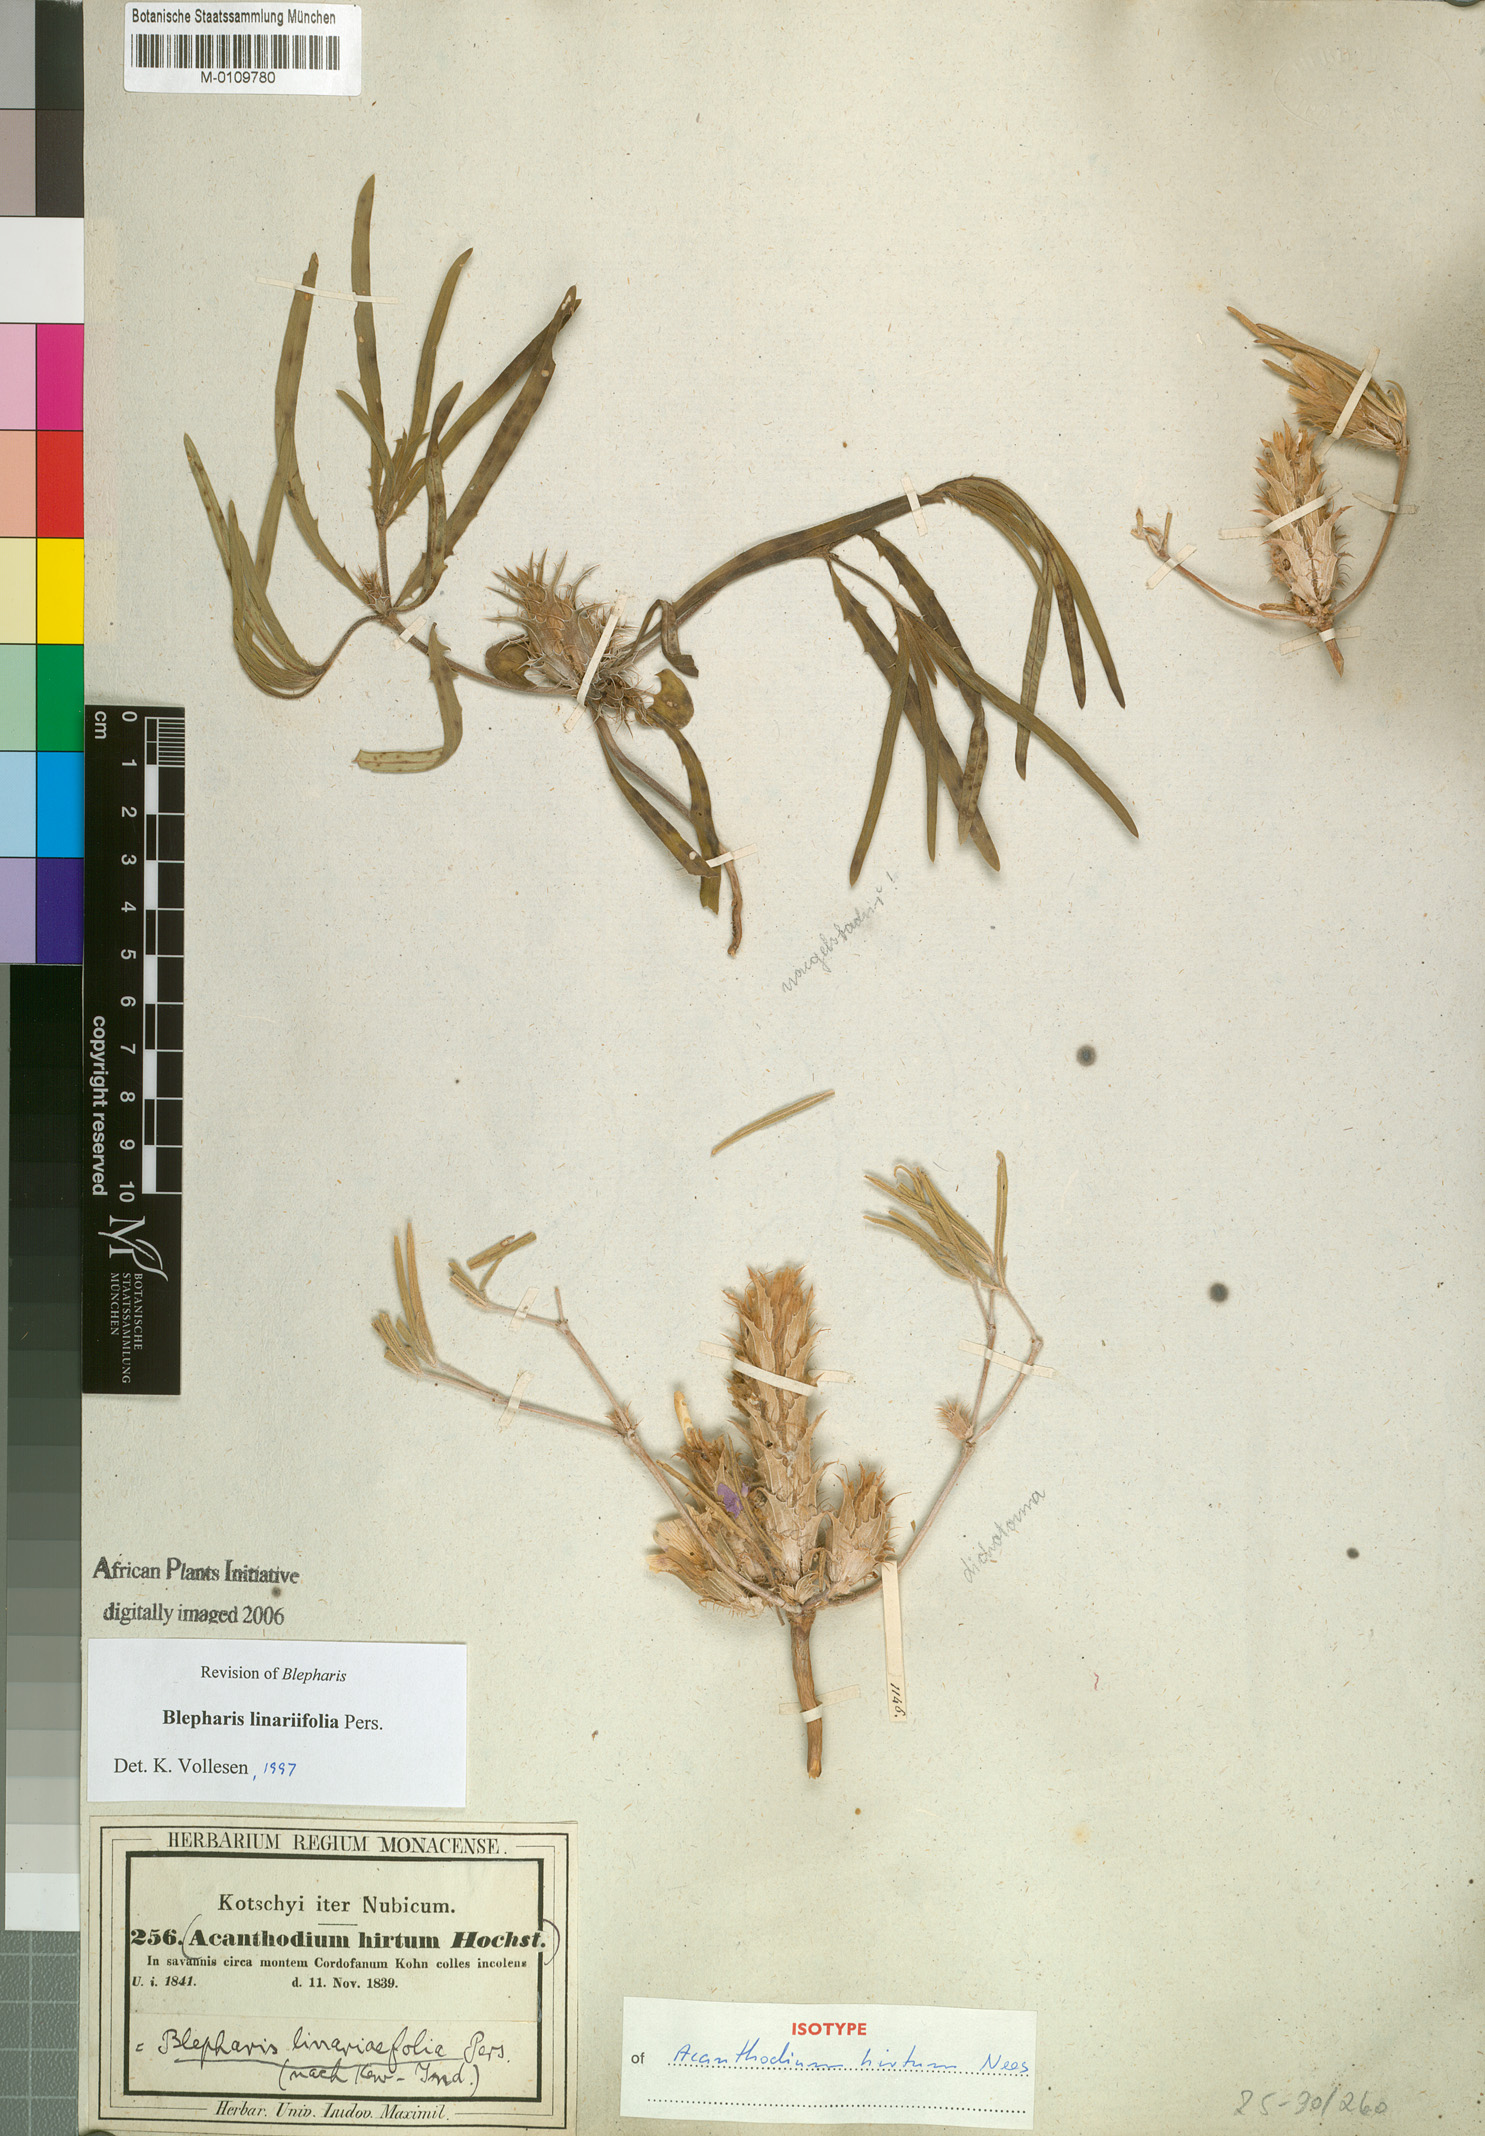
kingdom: Plantae
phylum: Tracheophyta
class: Magnoliopsida
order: Lamiales
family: Acanthaceae
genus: Blepharis
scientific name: Blepharis linearifolia
